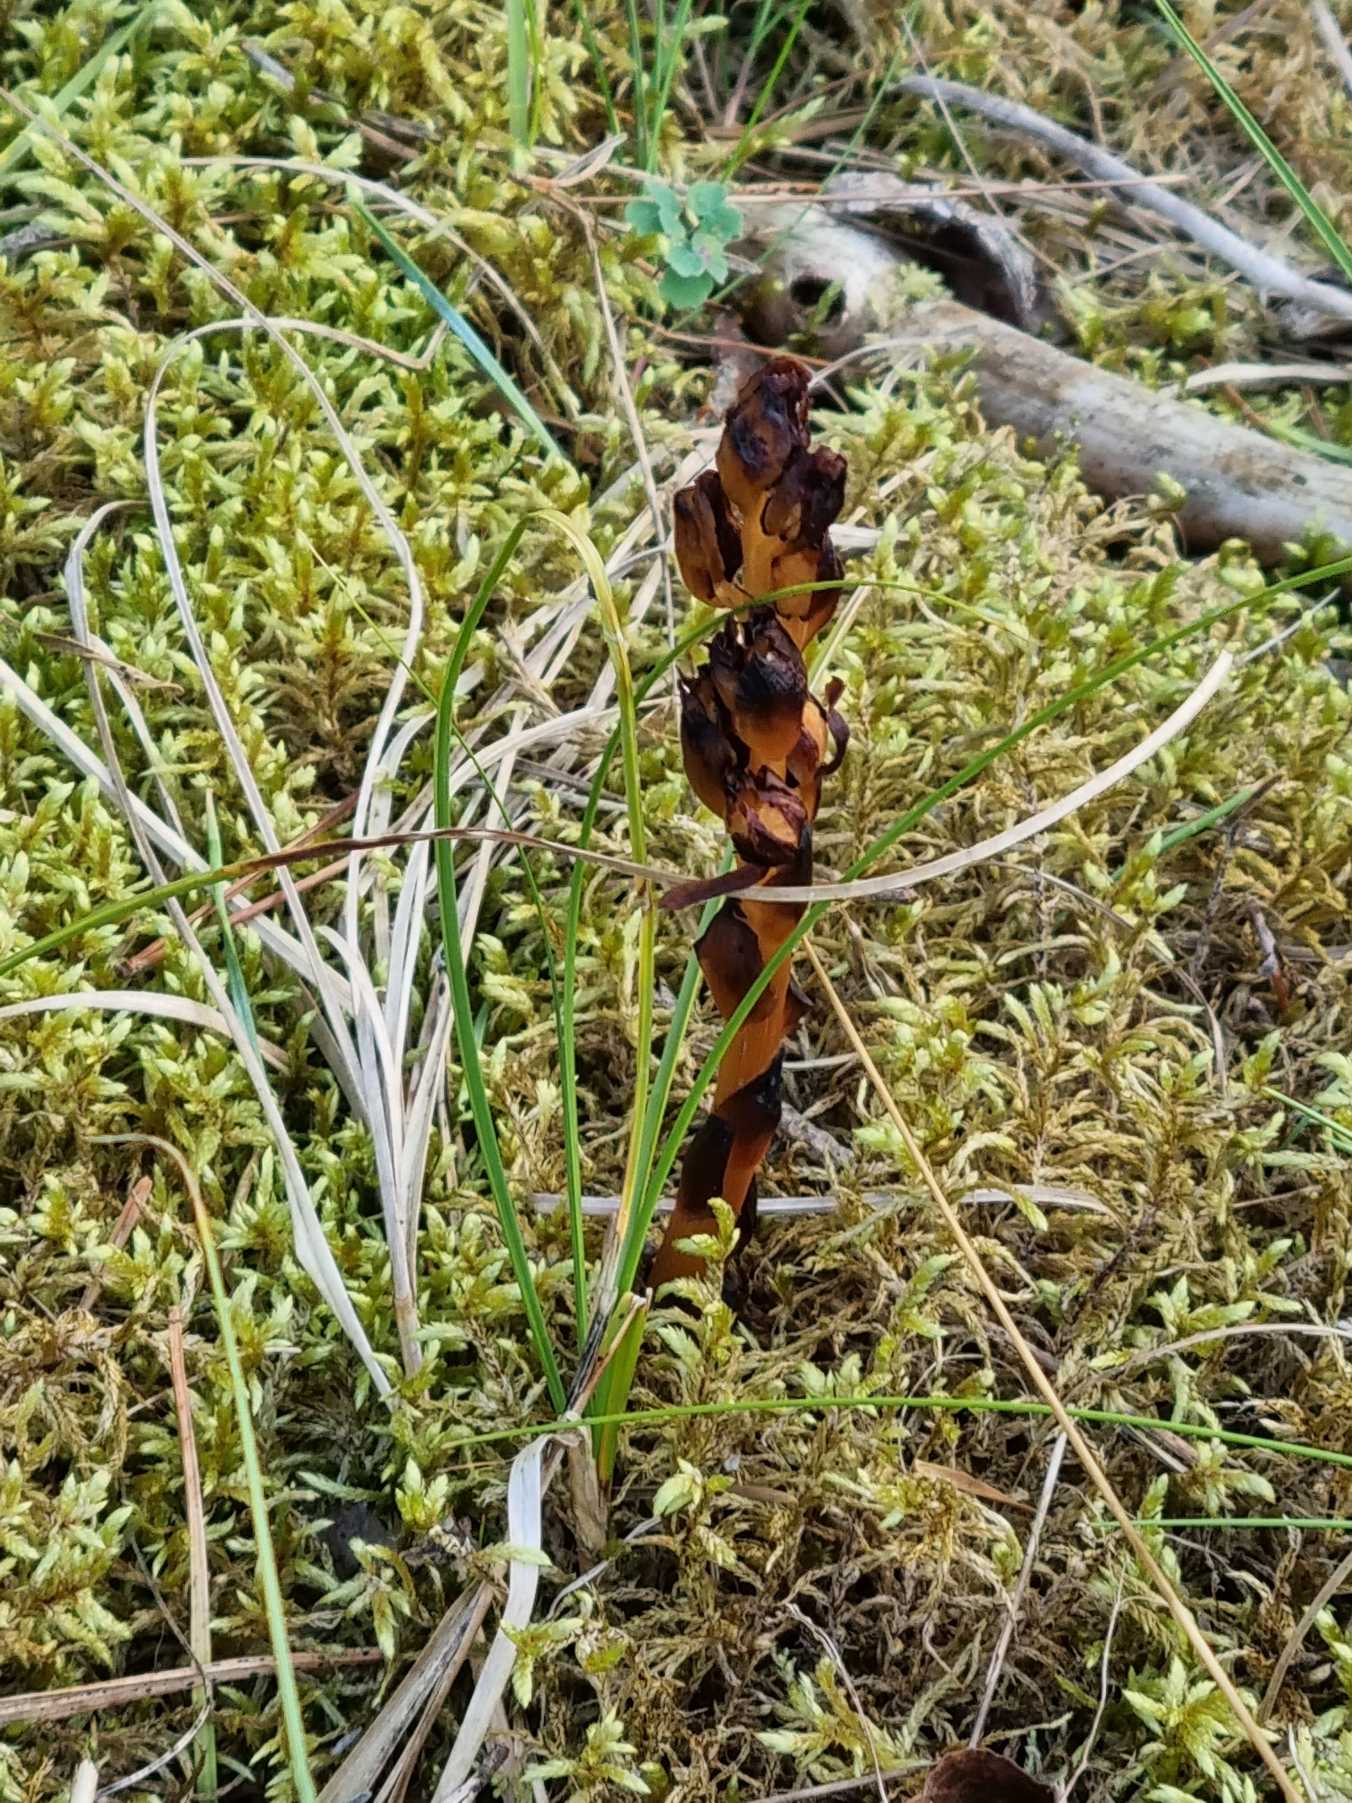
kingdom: Plantae
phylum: Tracheophyta
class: Magnoliopsida
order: Ericales
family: Ericaceae
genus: Hypopitys
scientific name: Hypopitys hypophegea
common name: Glat snylterod
